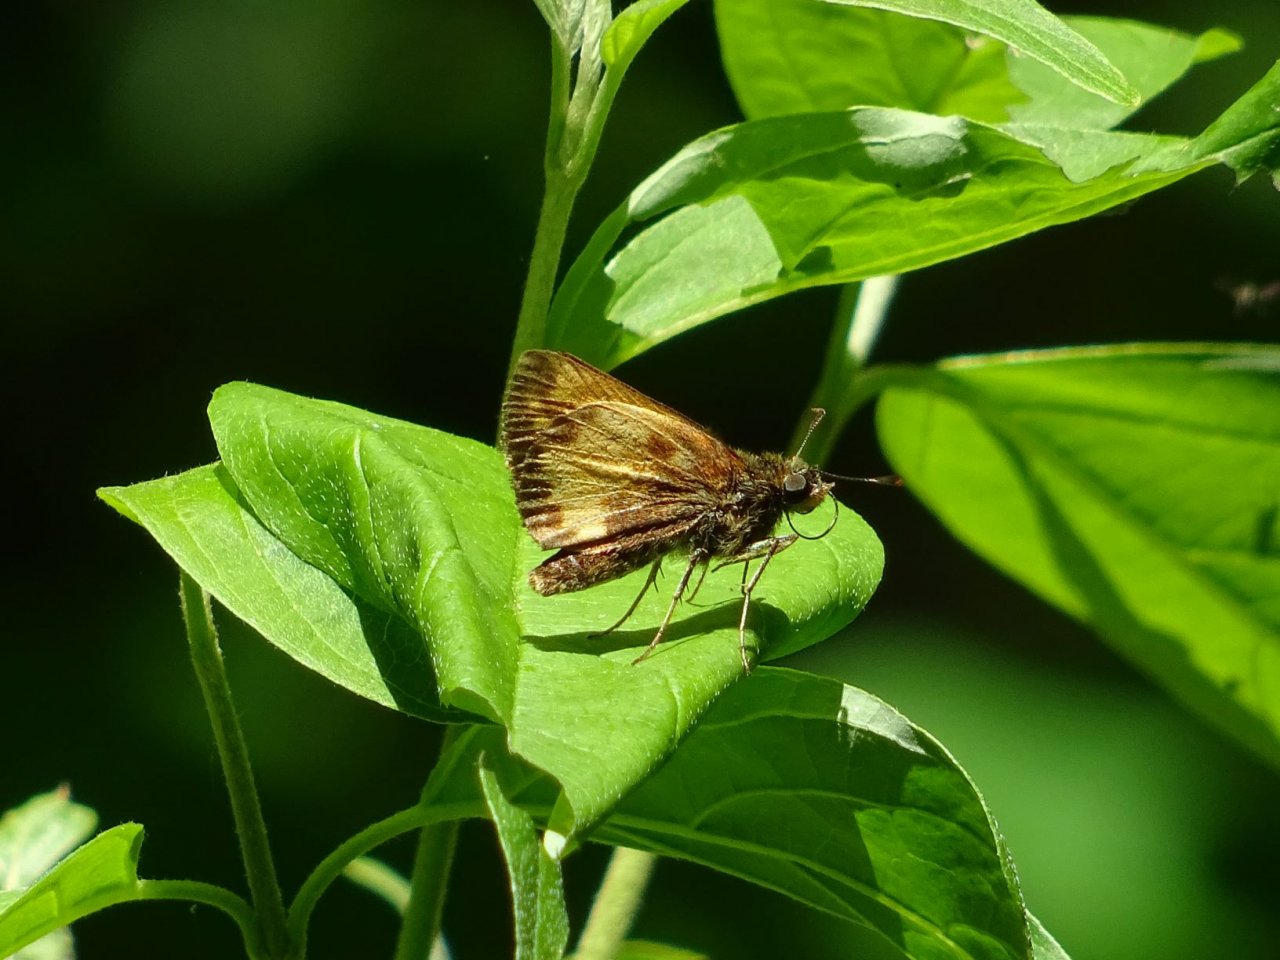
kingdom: Animalia
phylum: Arthropoda
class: Insecta
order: Lepidoptera
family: Hesperiidae
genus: Lon
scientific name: Lon hobomok
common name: Hobomok Skipper
